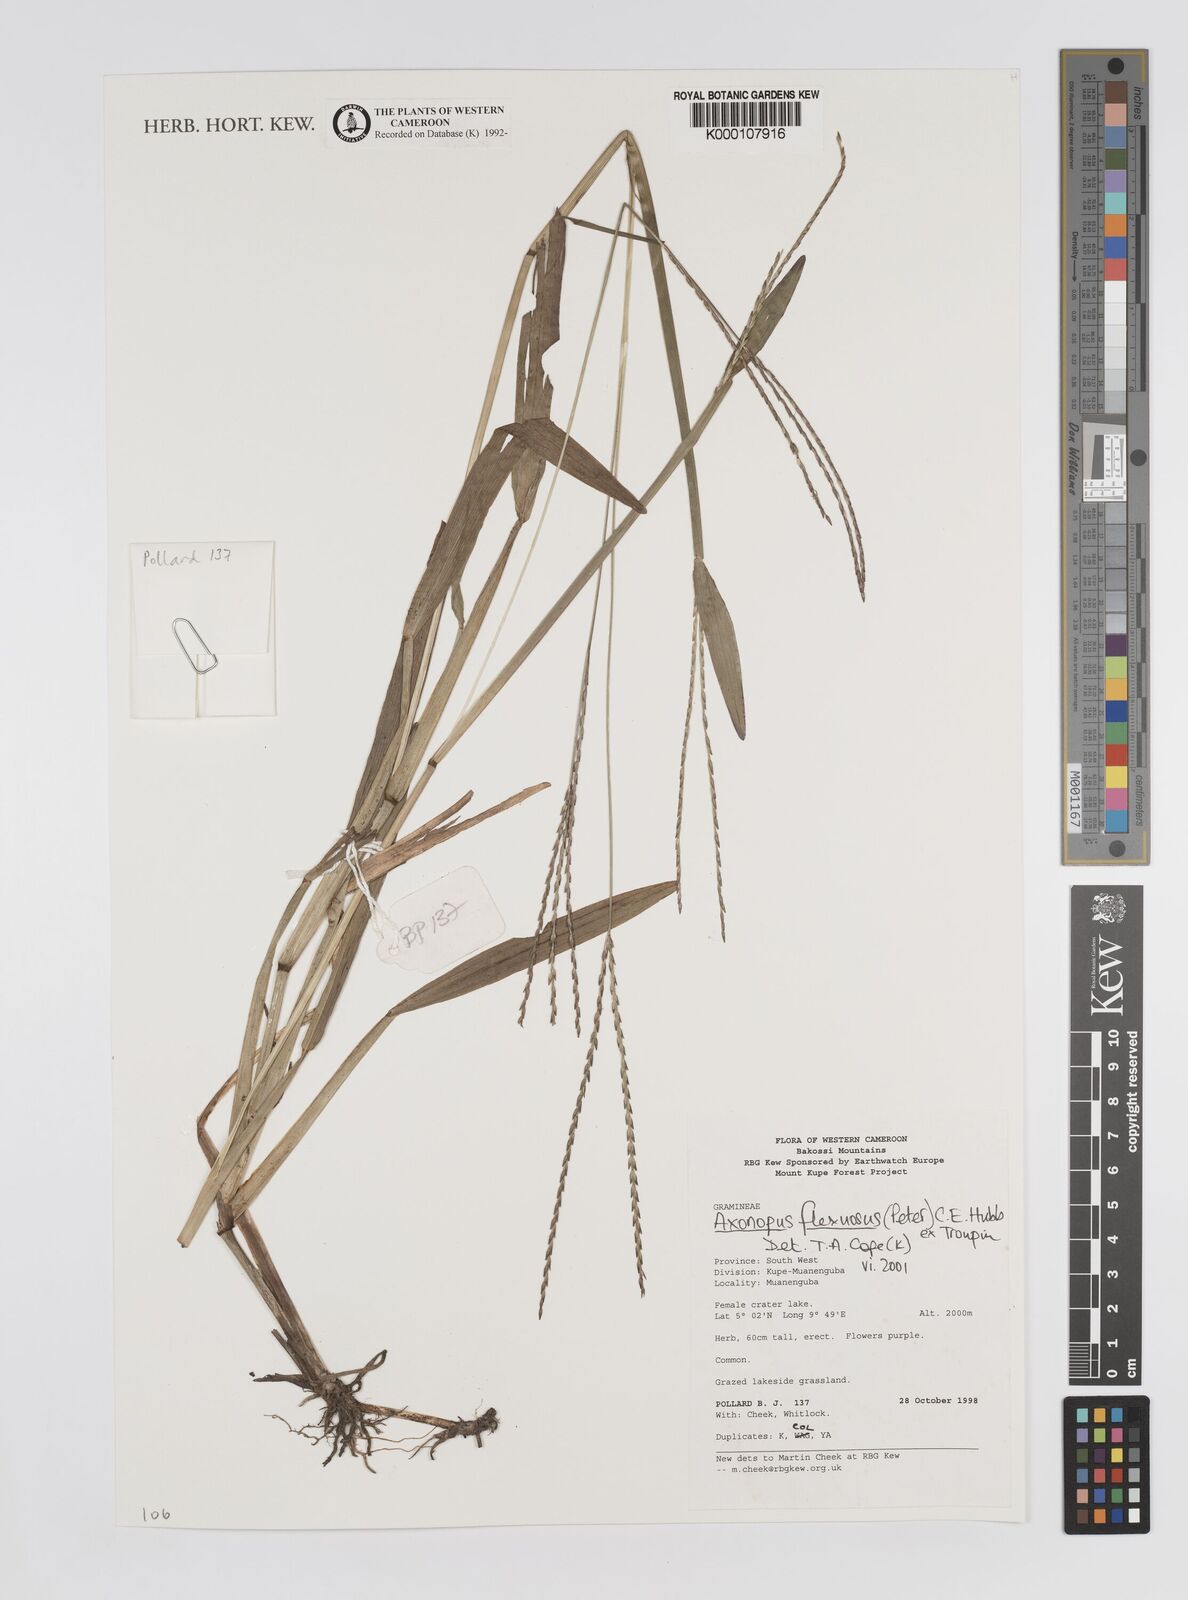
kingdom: Plantae
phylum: Tracheophyta
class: Liliopsida
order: Poales
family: Poaceae
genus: Axonopus
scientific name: Axonopus flexuosus
